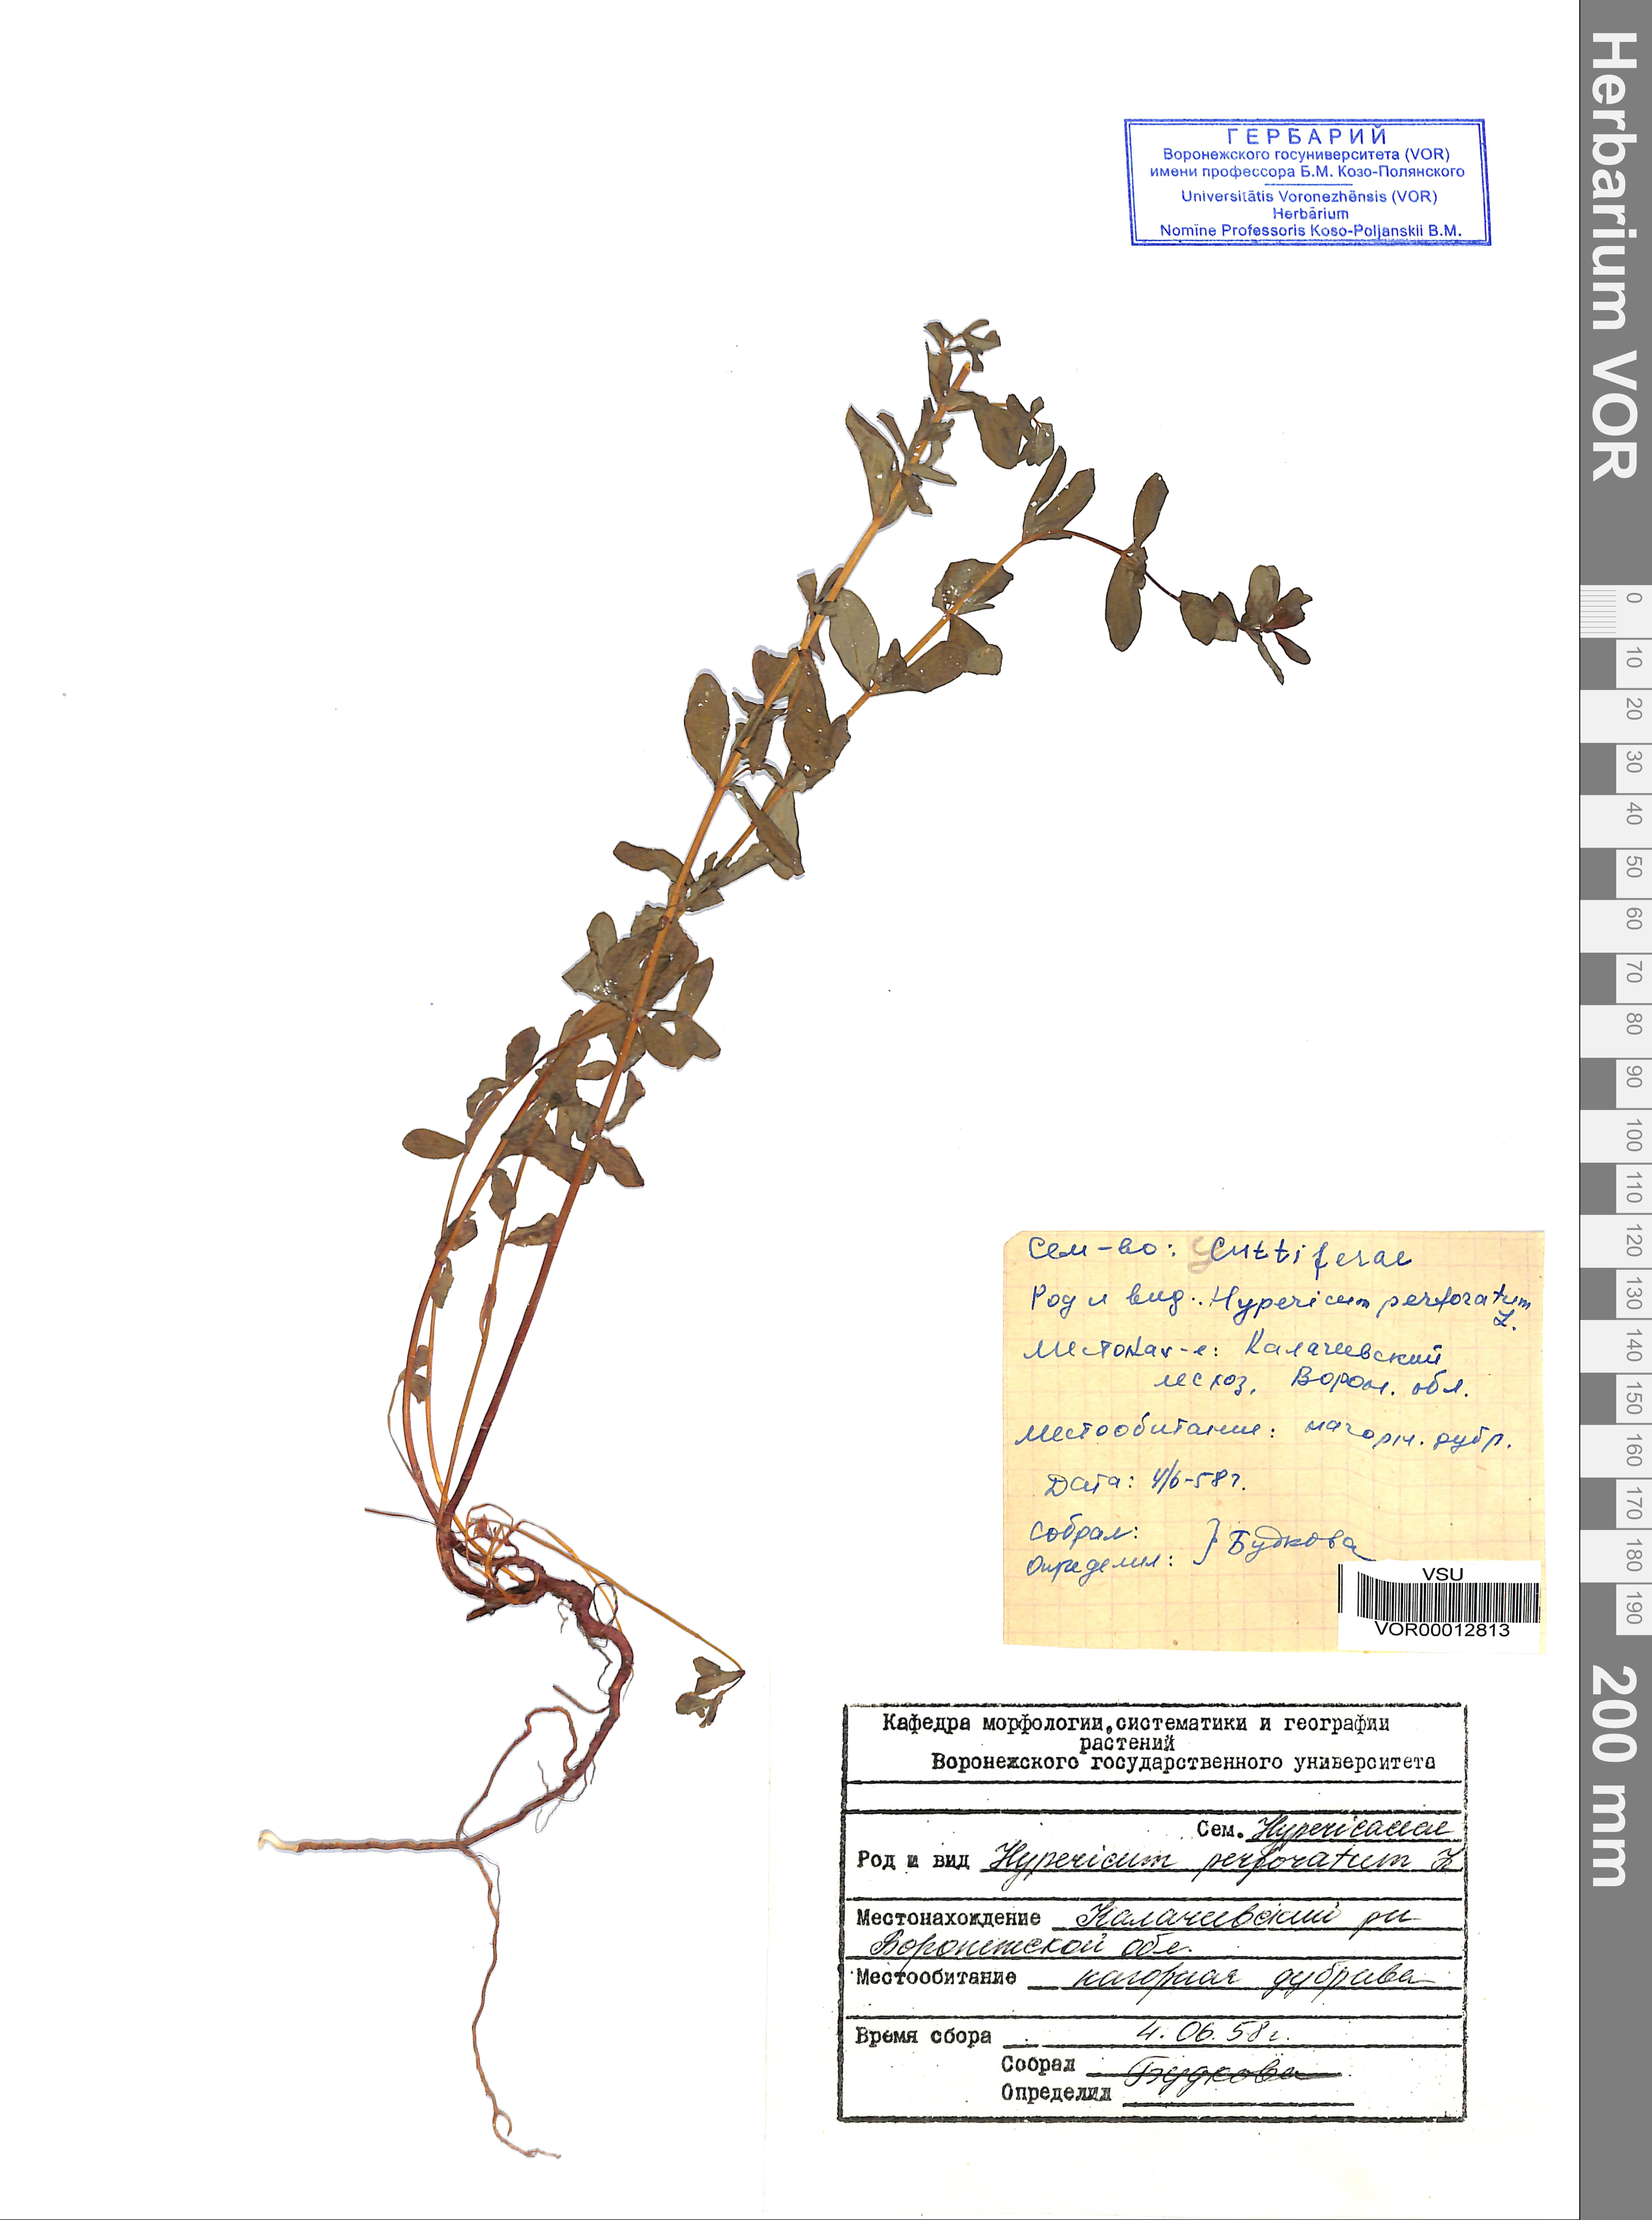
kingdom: Plantae
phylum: Tracheophyta
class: Magnoliopsida
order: Malpighiales
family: Hypericaceae
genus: Hypericum
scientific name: Hypericum perforatum
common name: Common st. johnswort
